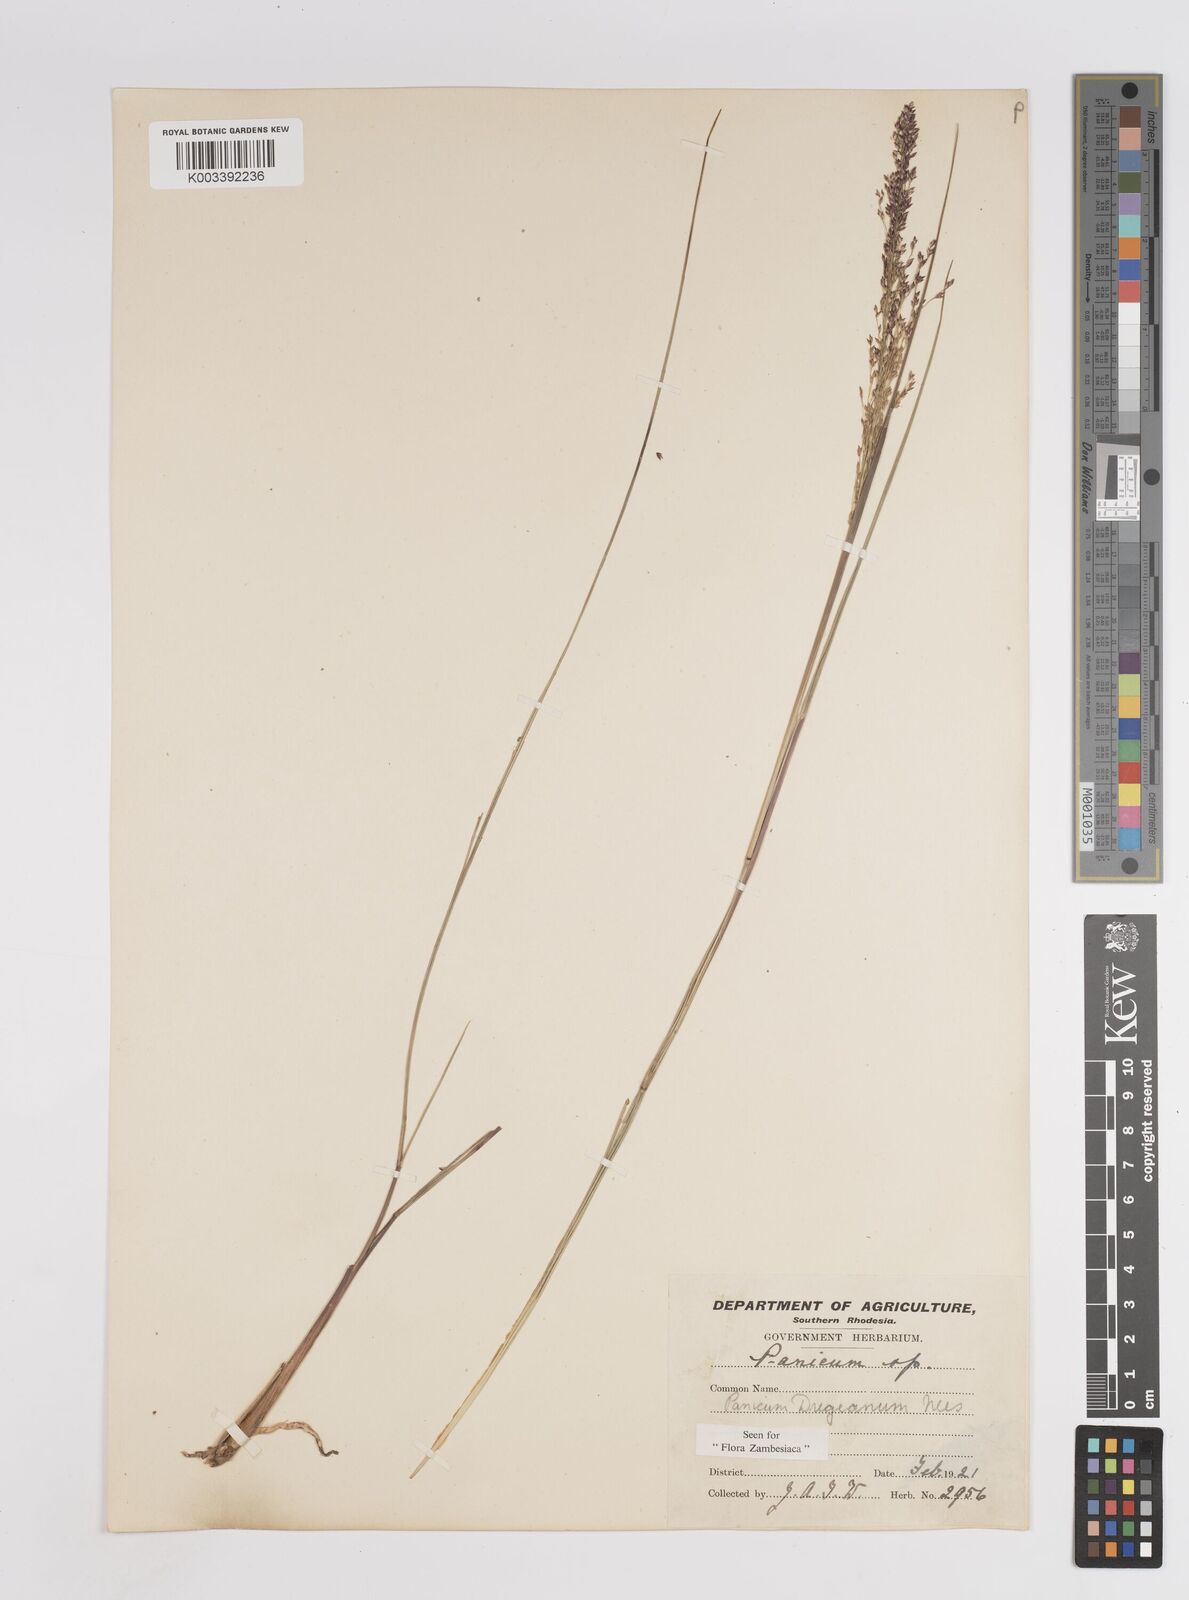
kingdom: Plantae
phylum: Tracheophyta
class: Liliopsida
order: Poales
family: Poaceae
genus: Panicum
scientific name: Panicum dregeanum
